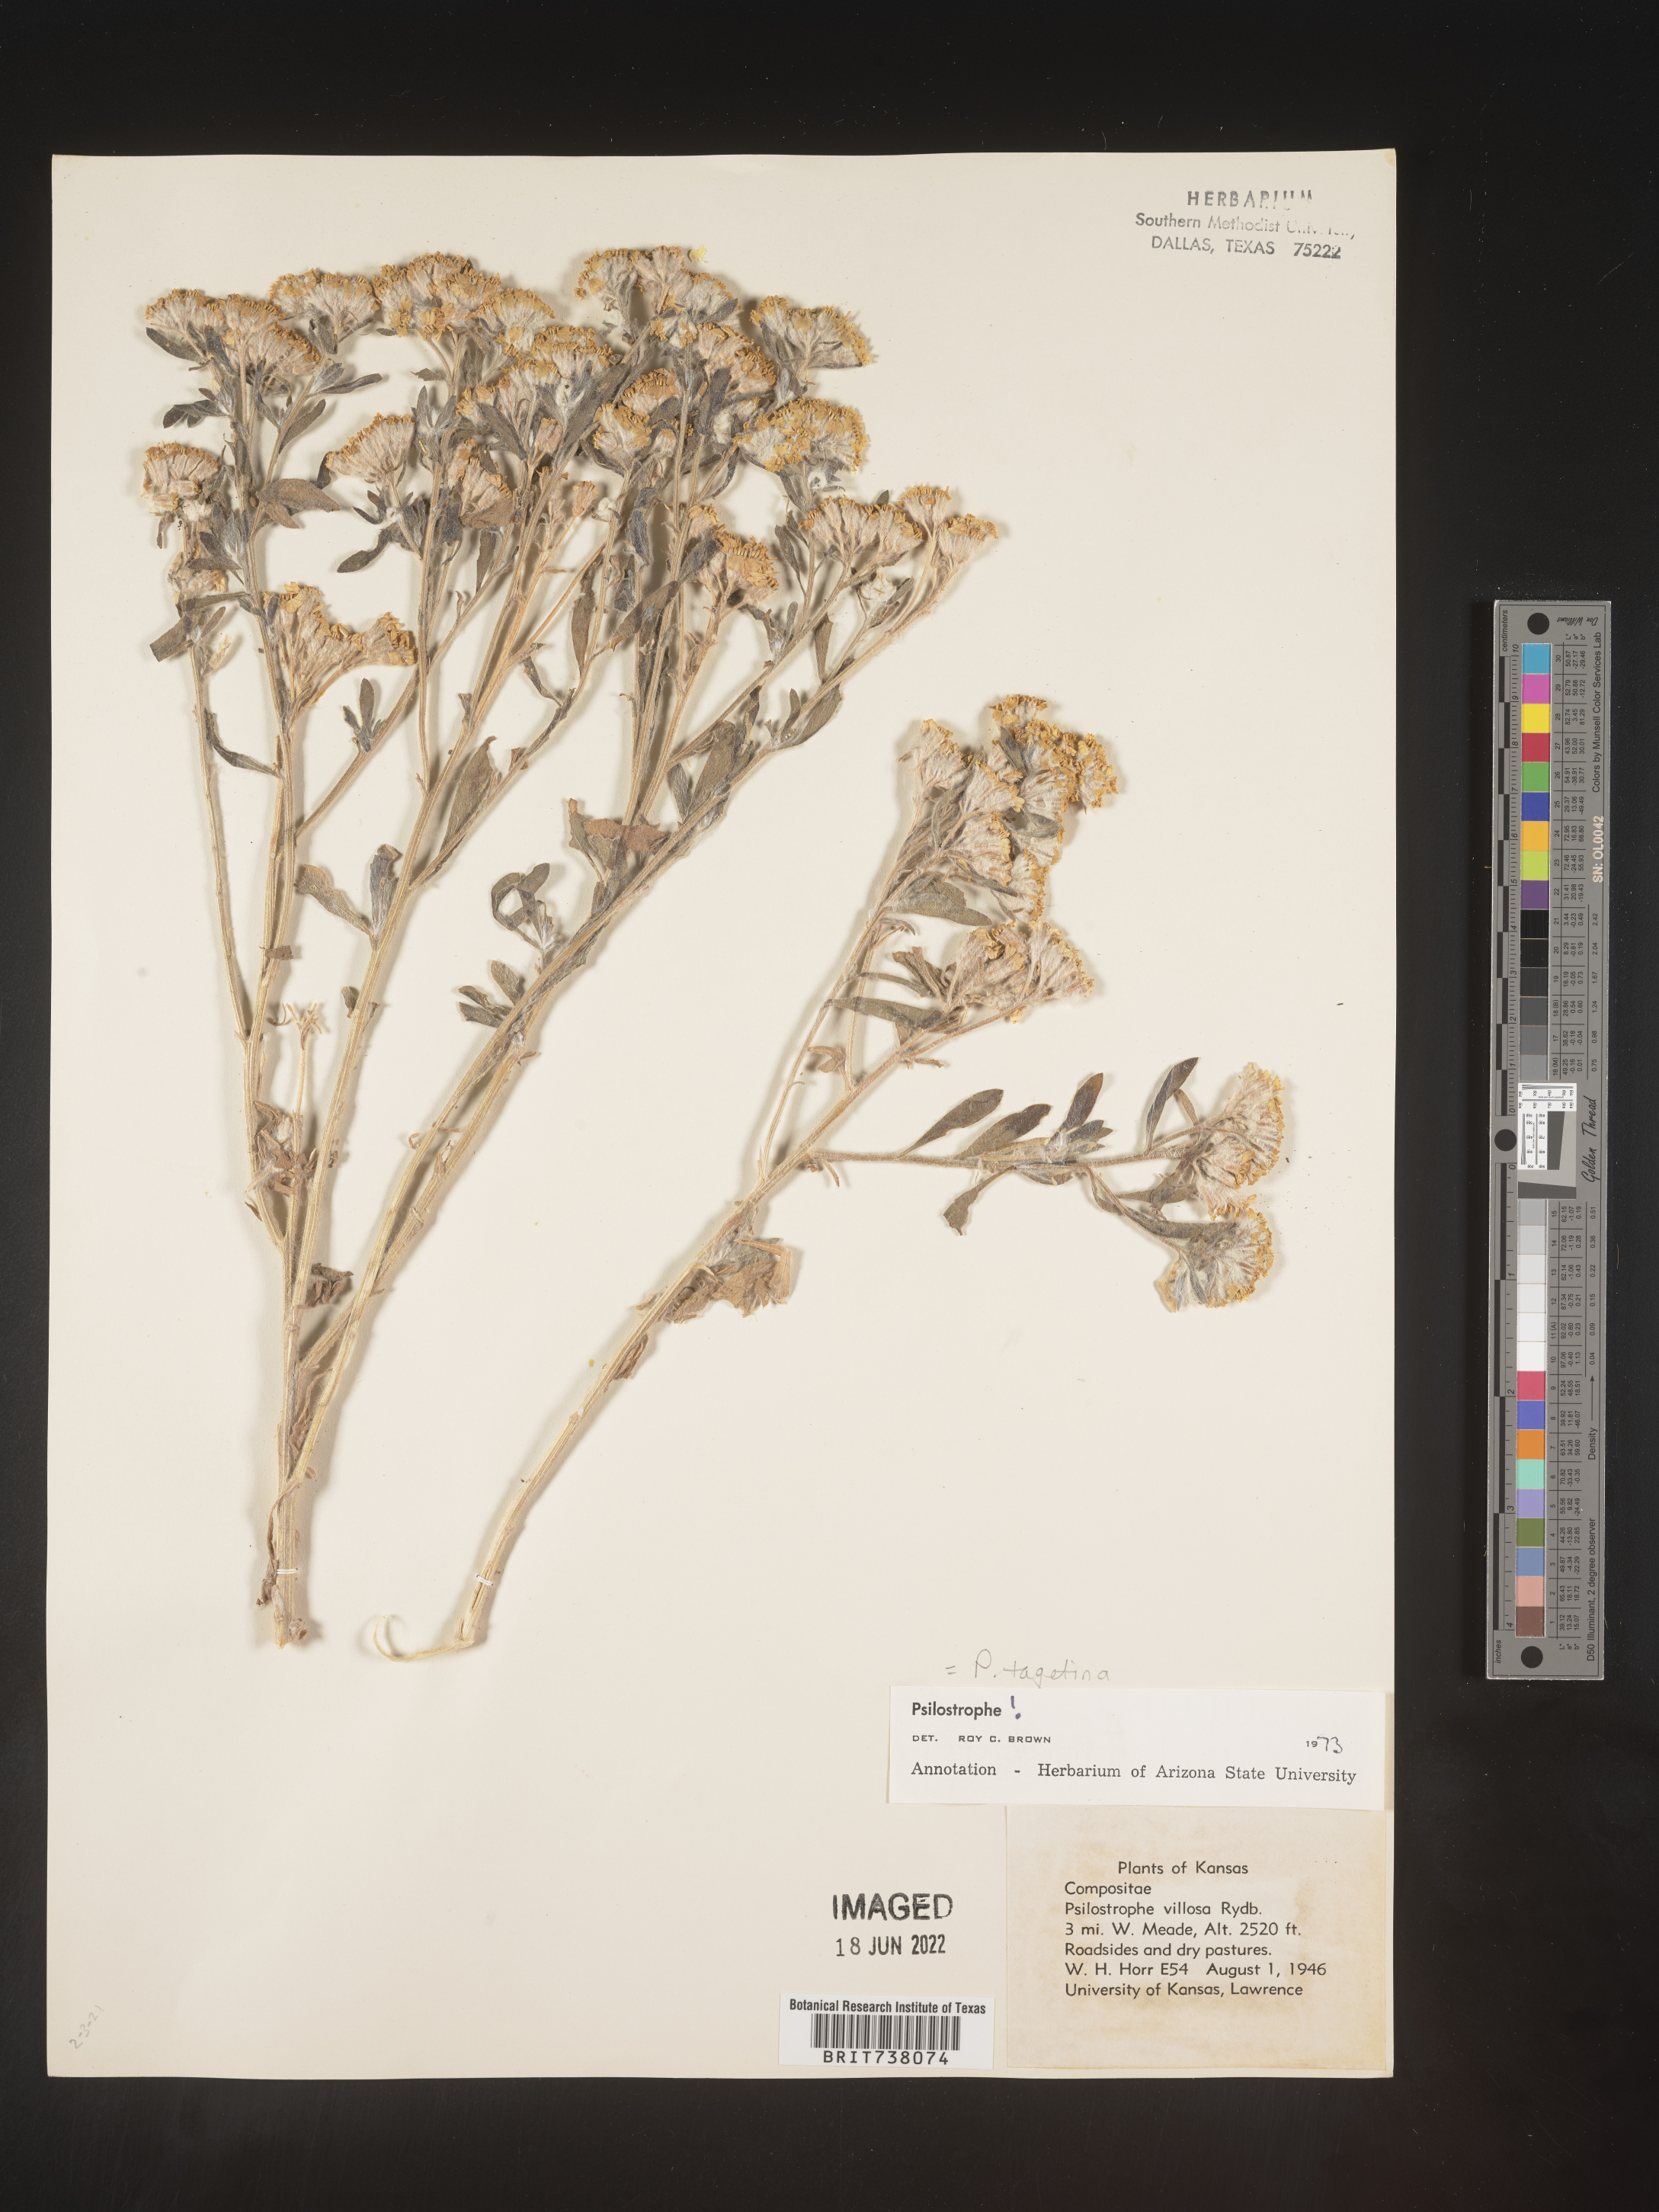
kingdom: Plantae
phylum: Tracheophyta
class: Magnoliopsida
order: Asterales
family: Asteraceae
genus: Psilostrophe
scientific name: Psilostrophe tagetina
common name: Marigold paper-flower
